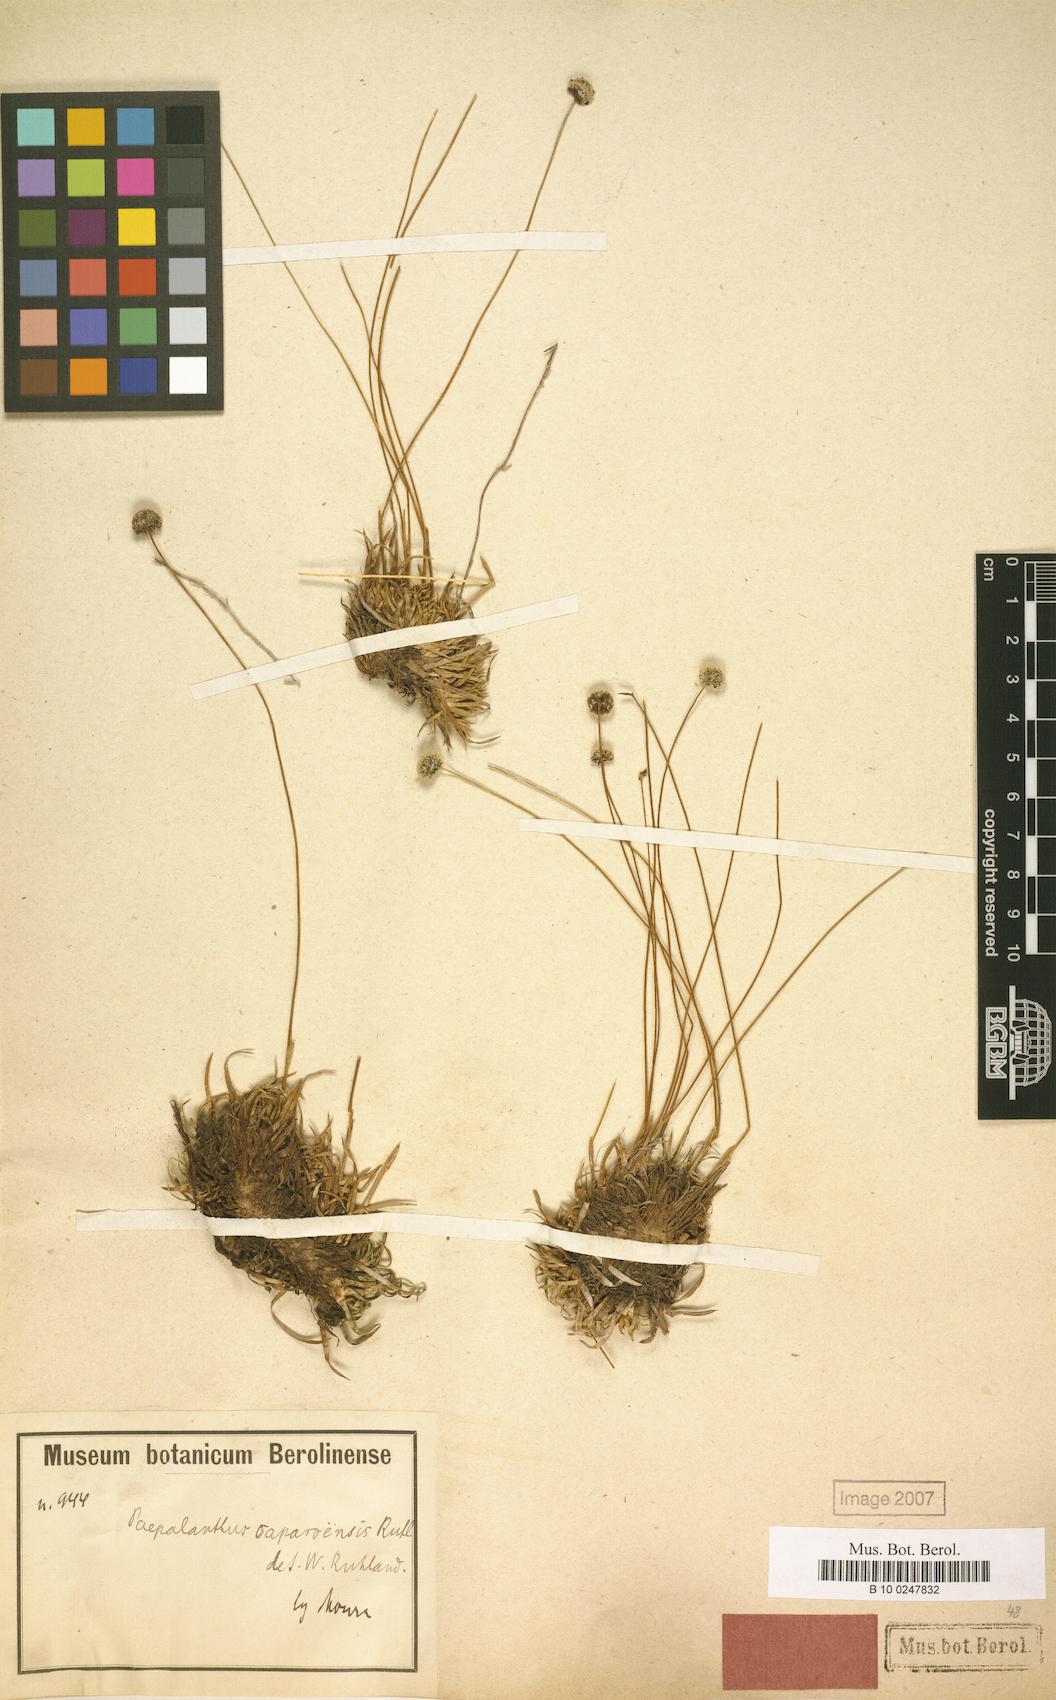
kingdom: Plantae
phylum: Tracheophyta
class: Liliopsida
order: Poales
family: Eriocaulaceae
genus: Paepalanthus
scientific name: Paepalanthus caparoensis
